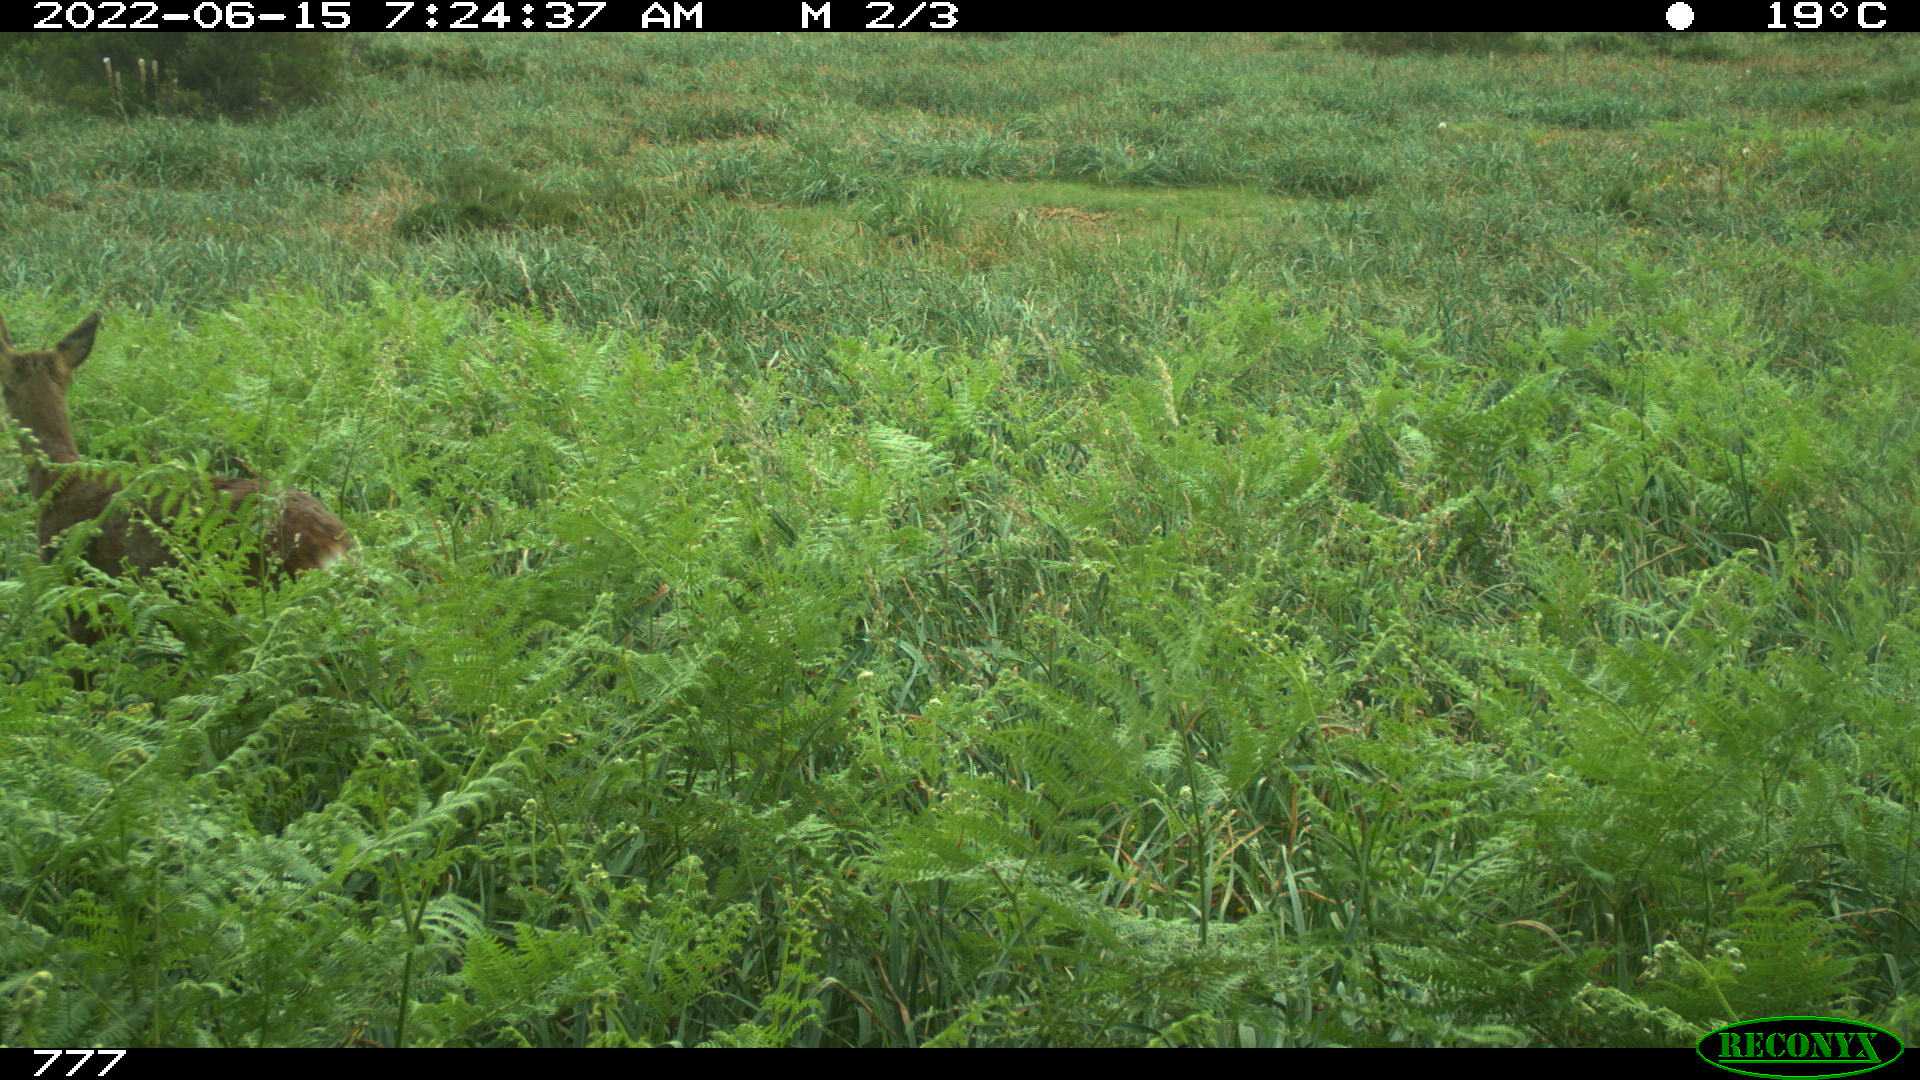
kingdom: Animalia
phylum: Chordata
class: Mammalia
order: Artiodactyla
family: Cervidae
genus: Capreolus
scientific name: Capreolus capreolus
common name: Western roe deer
